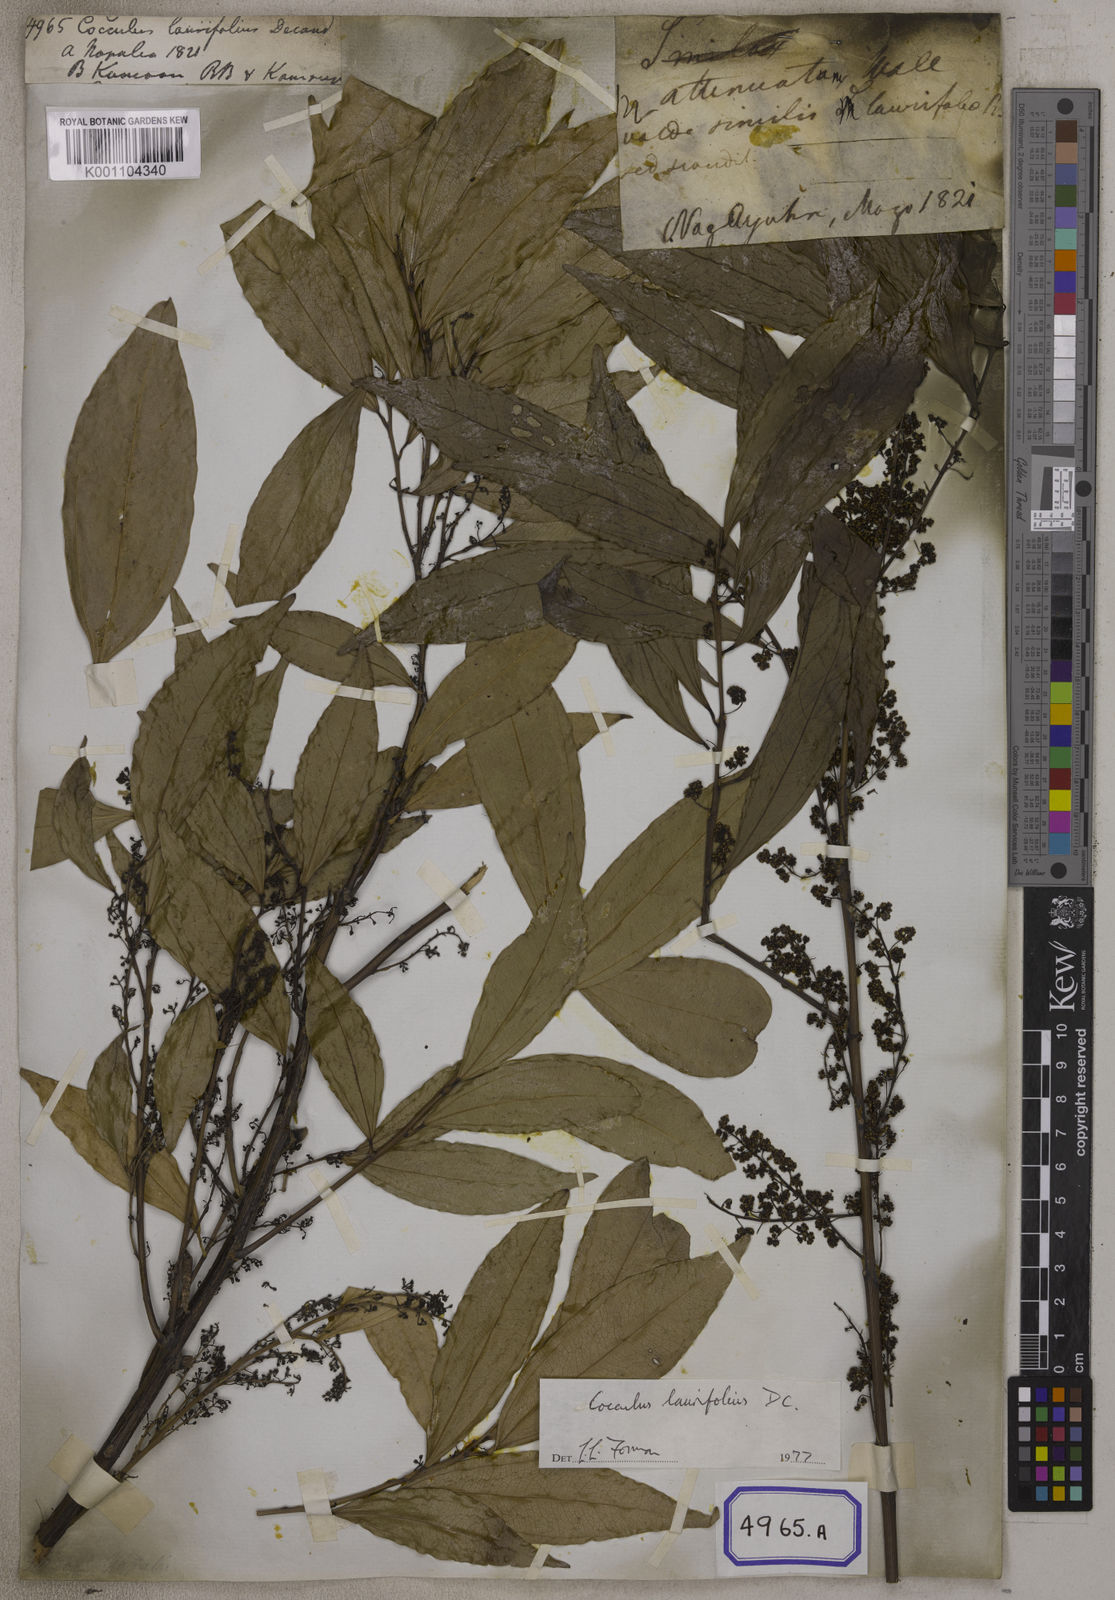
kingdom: Plantae
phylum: Tracheophyta
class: Magnoliopsida
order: Ranunculales
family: Menispermaceae
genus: Cocculus
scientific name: Cocculus laurifolius
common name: Laurel-leaf snailseed
